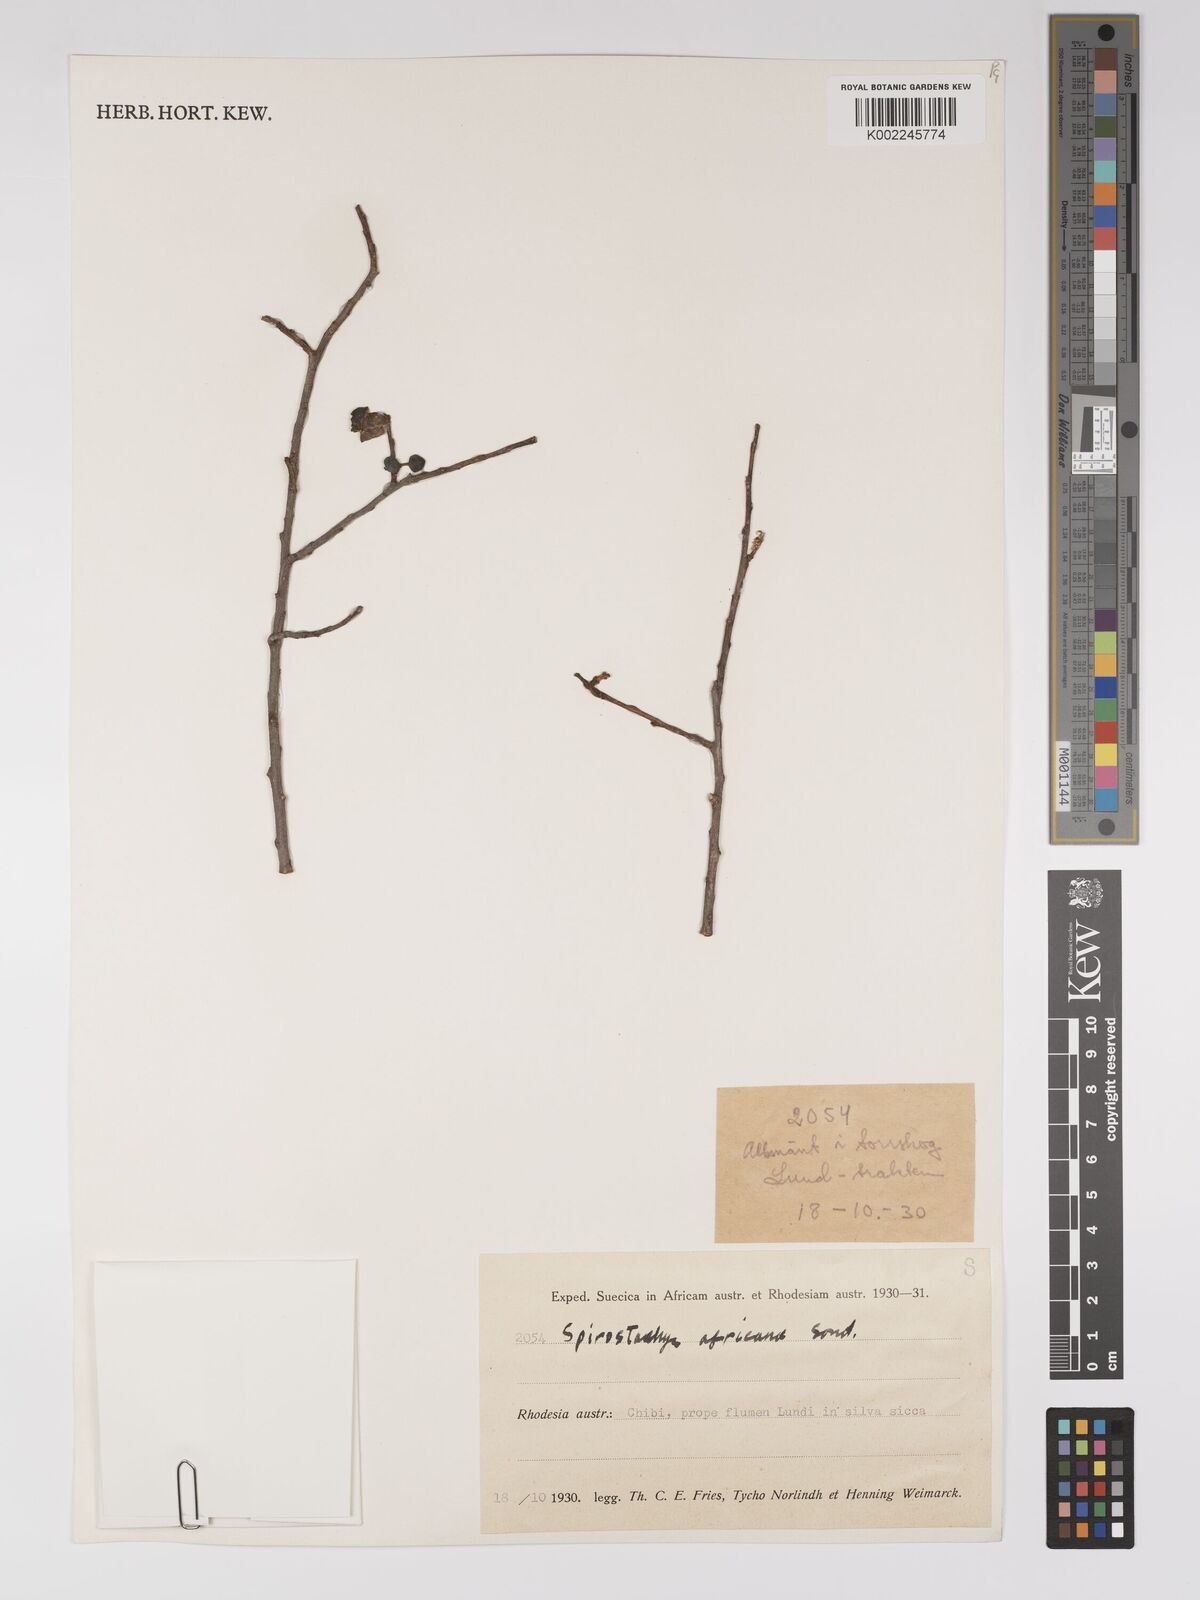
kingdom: Plantae
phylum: Tracheophyta
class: Magnoliopsida
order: Malpighiales
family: Euphorbiaceae
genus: Spirostachys
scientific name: Spirostachys africana
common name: Tamboti
